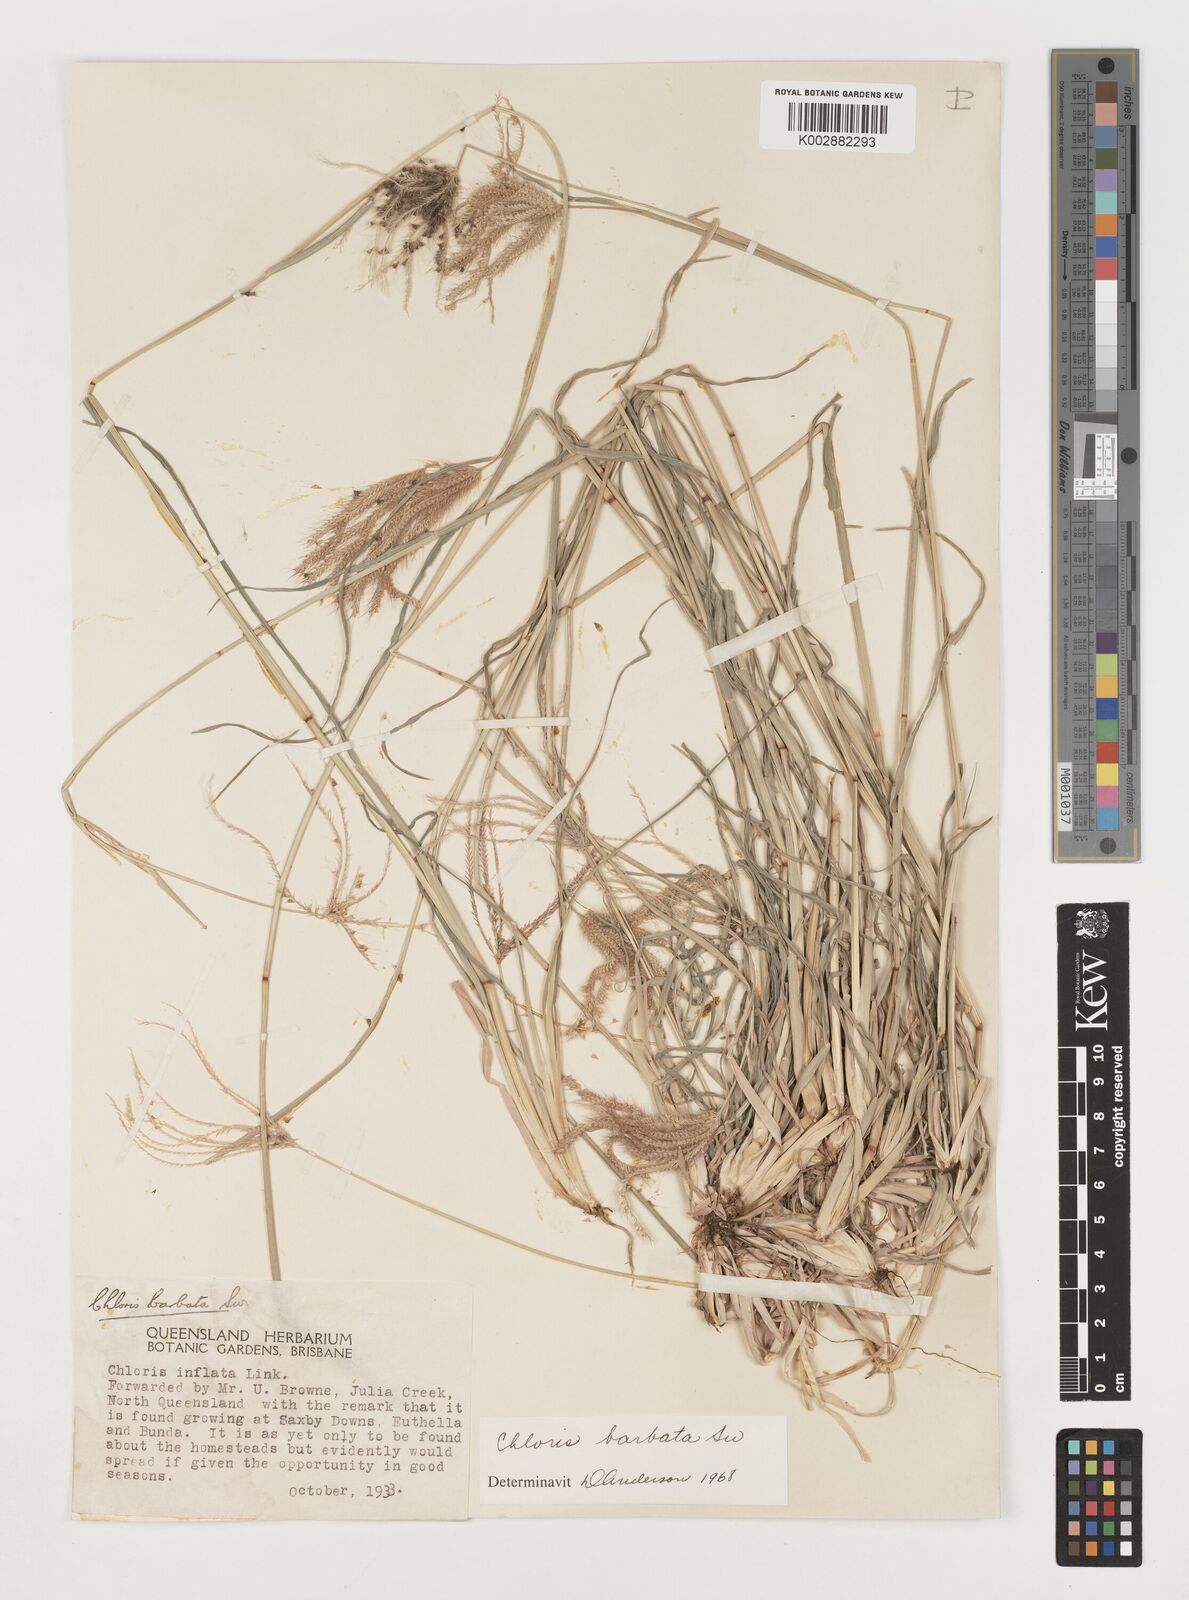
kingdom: Plantae
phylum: Tracheophyta
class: Liliopsida
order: Poales
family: Poaceae
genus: Chloris
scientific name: Chloris barbata
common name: Swollen fingergrass
